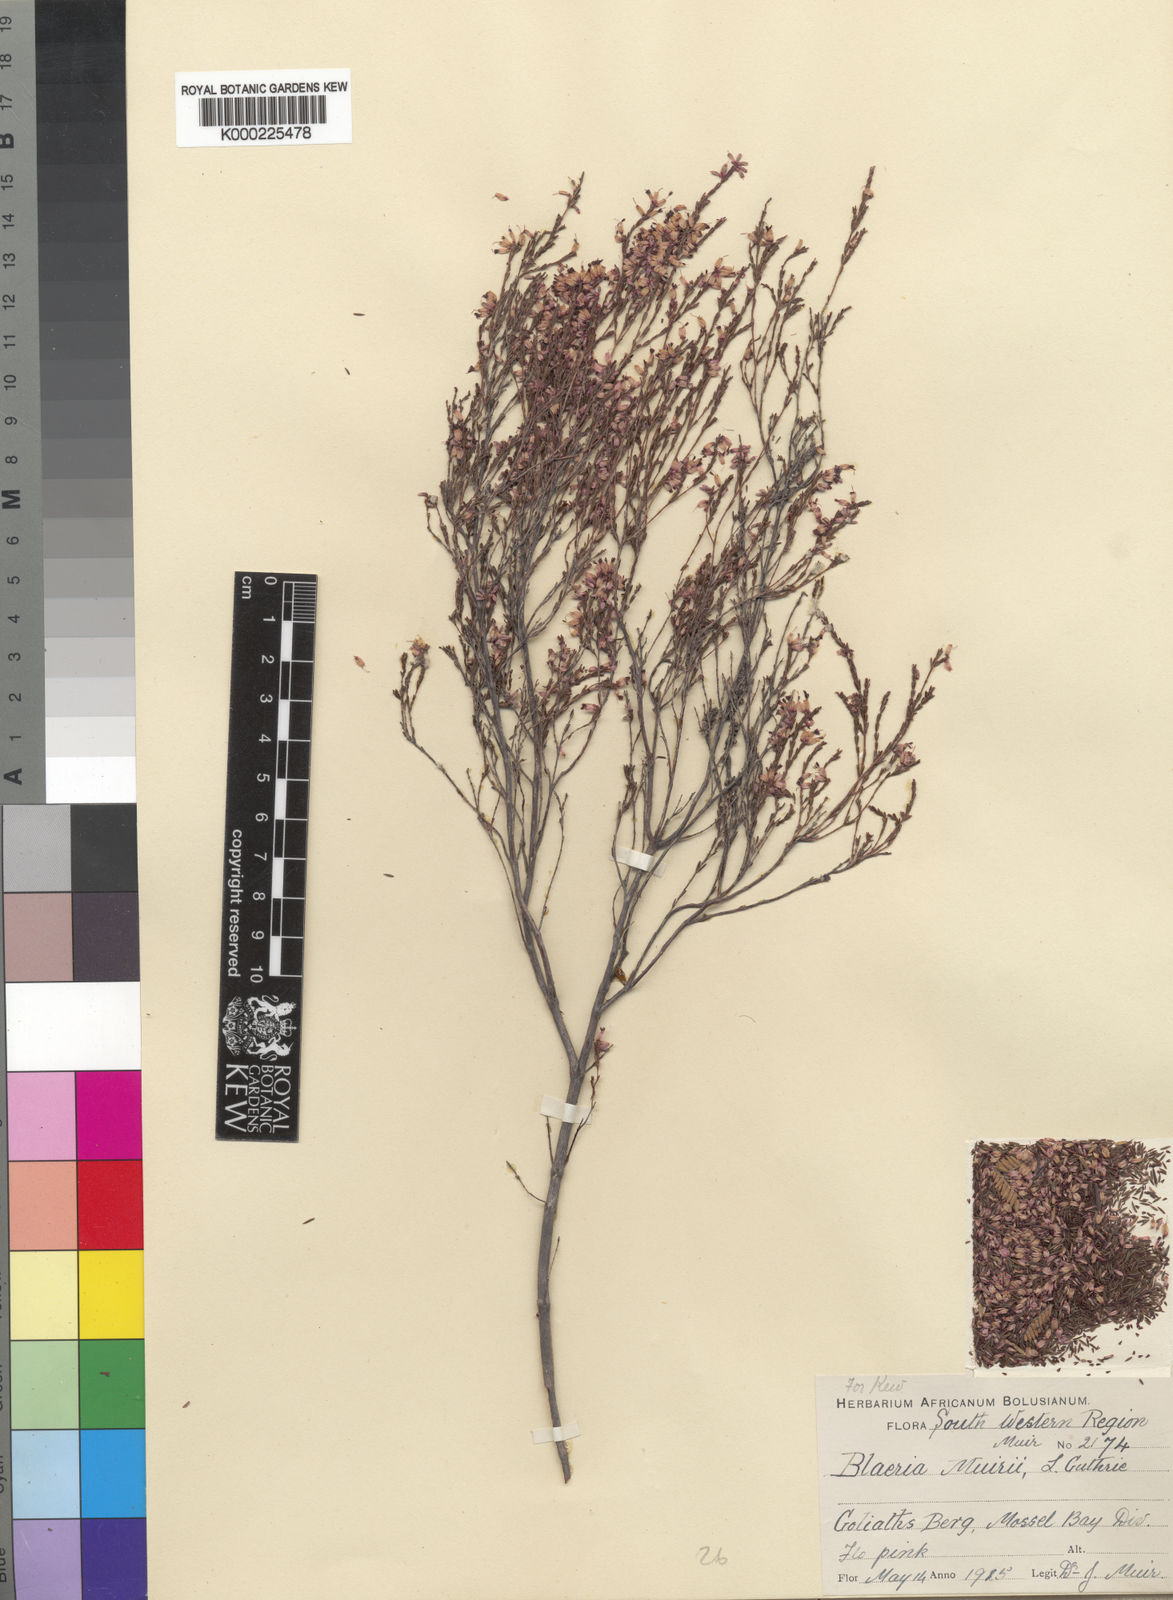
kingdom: Plantae
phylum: Tracheophyta
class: Magnoliopsida
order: Ericales
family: Ericaceae
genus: Erica
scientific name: Erica radicans
